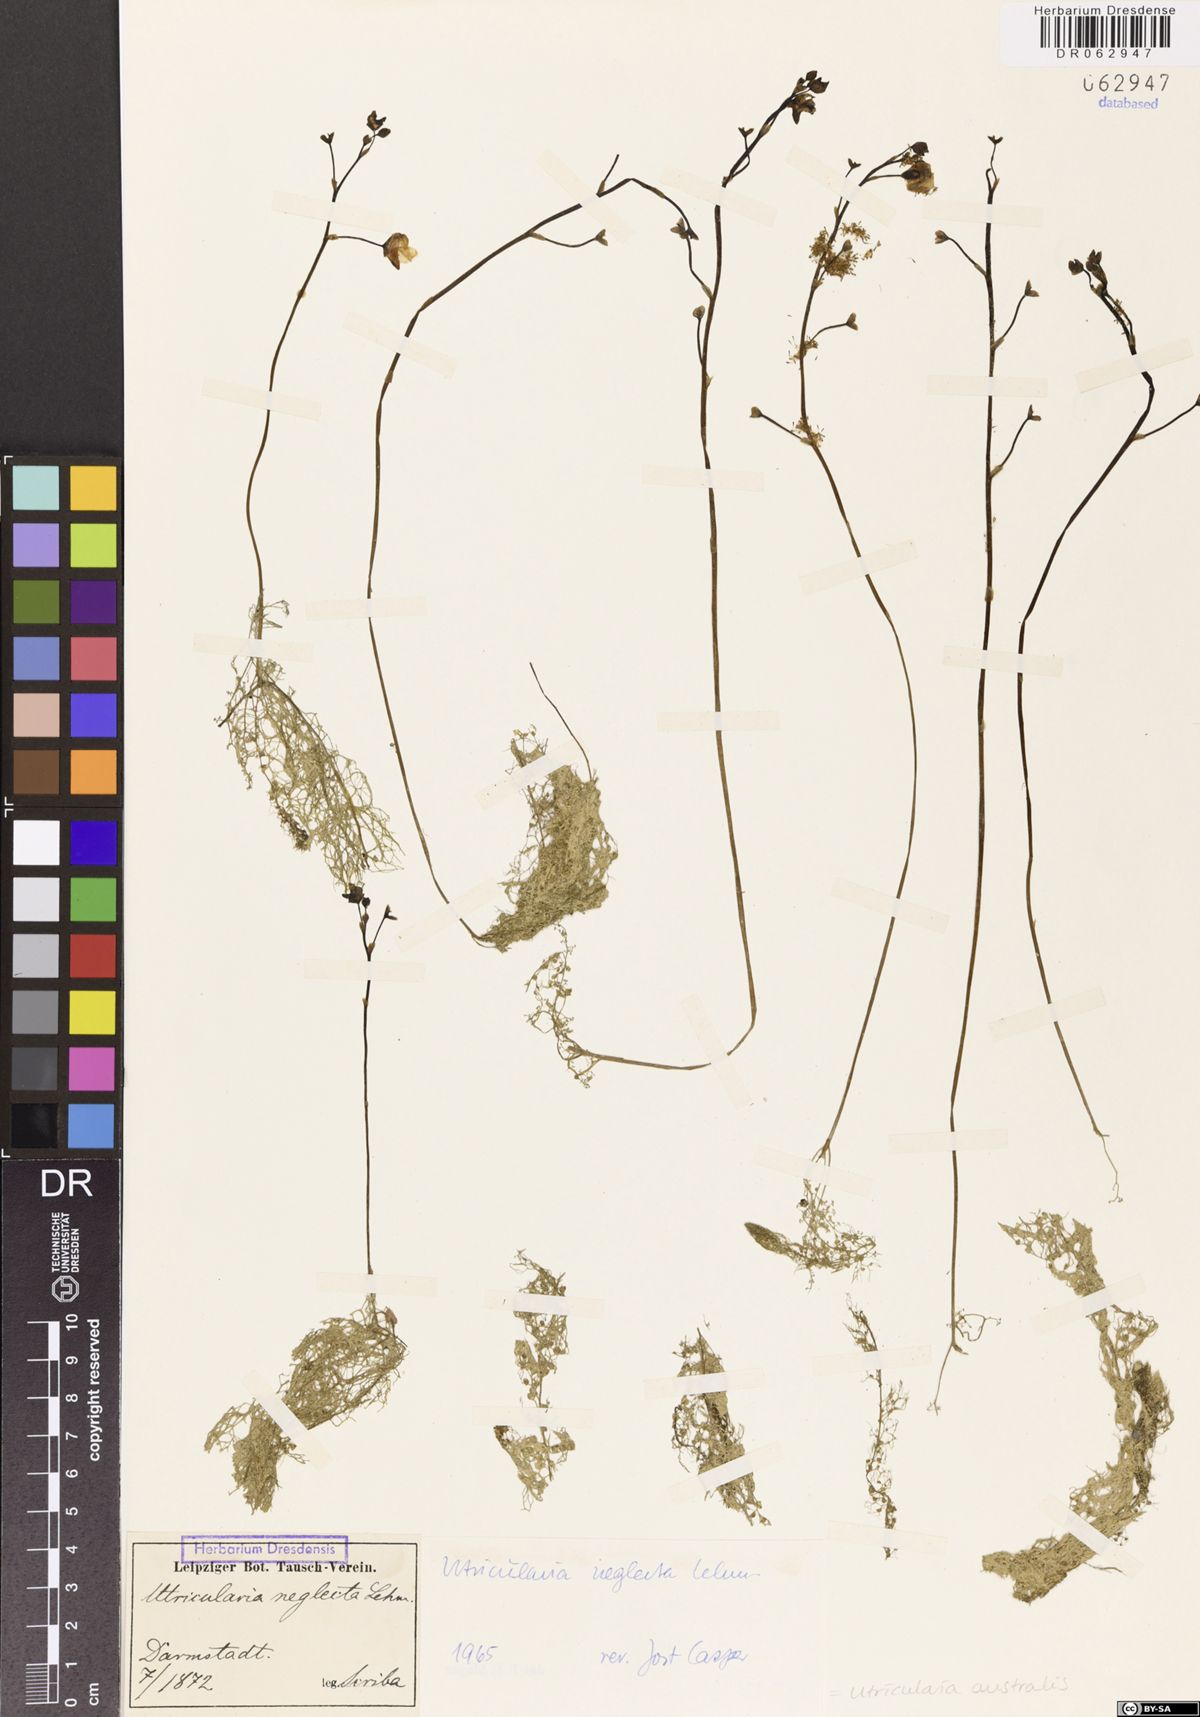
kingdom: Plantae
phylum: Tracheophyta
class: Magnoliopsida
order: Lamiales
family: Lentibulariaceae
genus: Utricularia
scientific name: Utricularia australis
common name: Bladderwort
